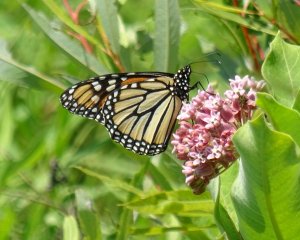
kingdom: Animalia
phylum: Arthropoda
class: Insecta
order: Lepidoptera
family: Nymphalidae
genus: Danaus
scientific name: Danaus plexippus
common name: Monarch
